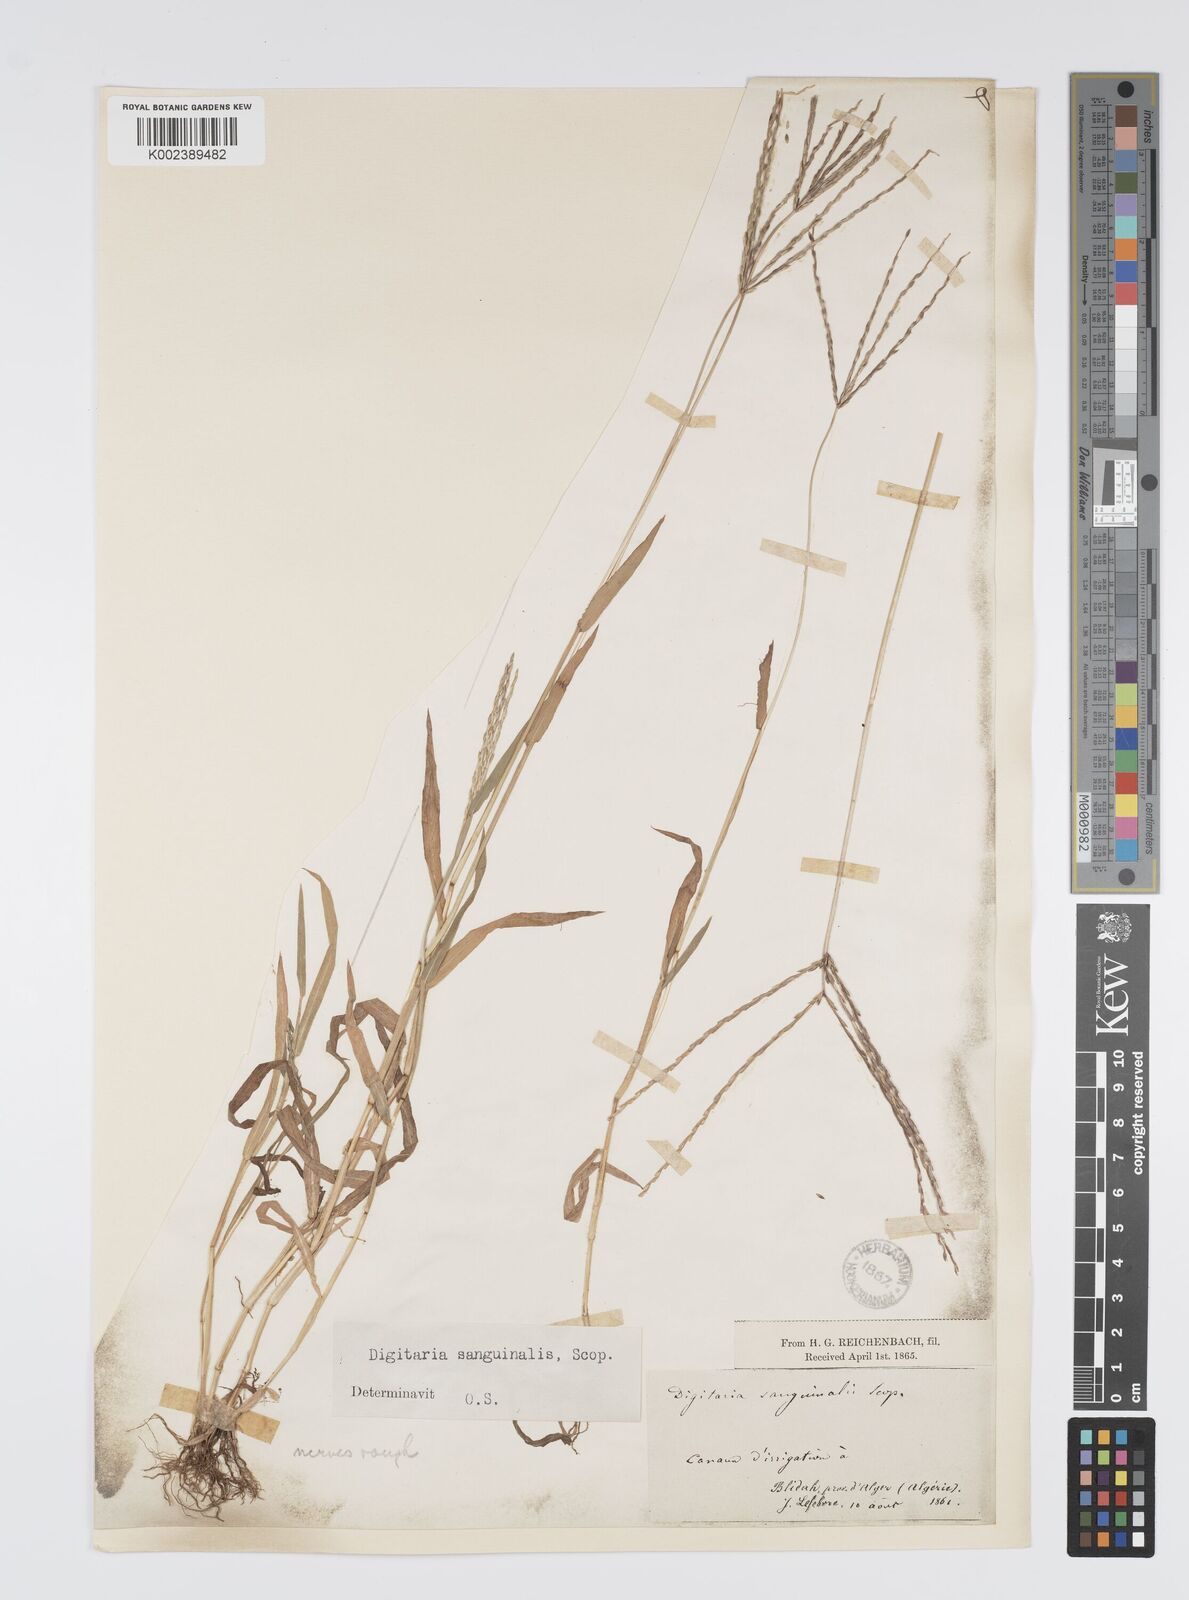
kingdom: Plantae
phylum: Tracheophyta
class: Liliopsida
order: Poales
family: Poaceae
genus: Digitaria
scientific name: Digitaria sanguinalis
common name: Hairy crabgrass
